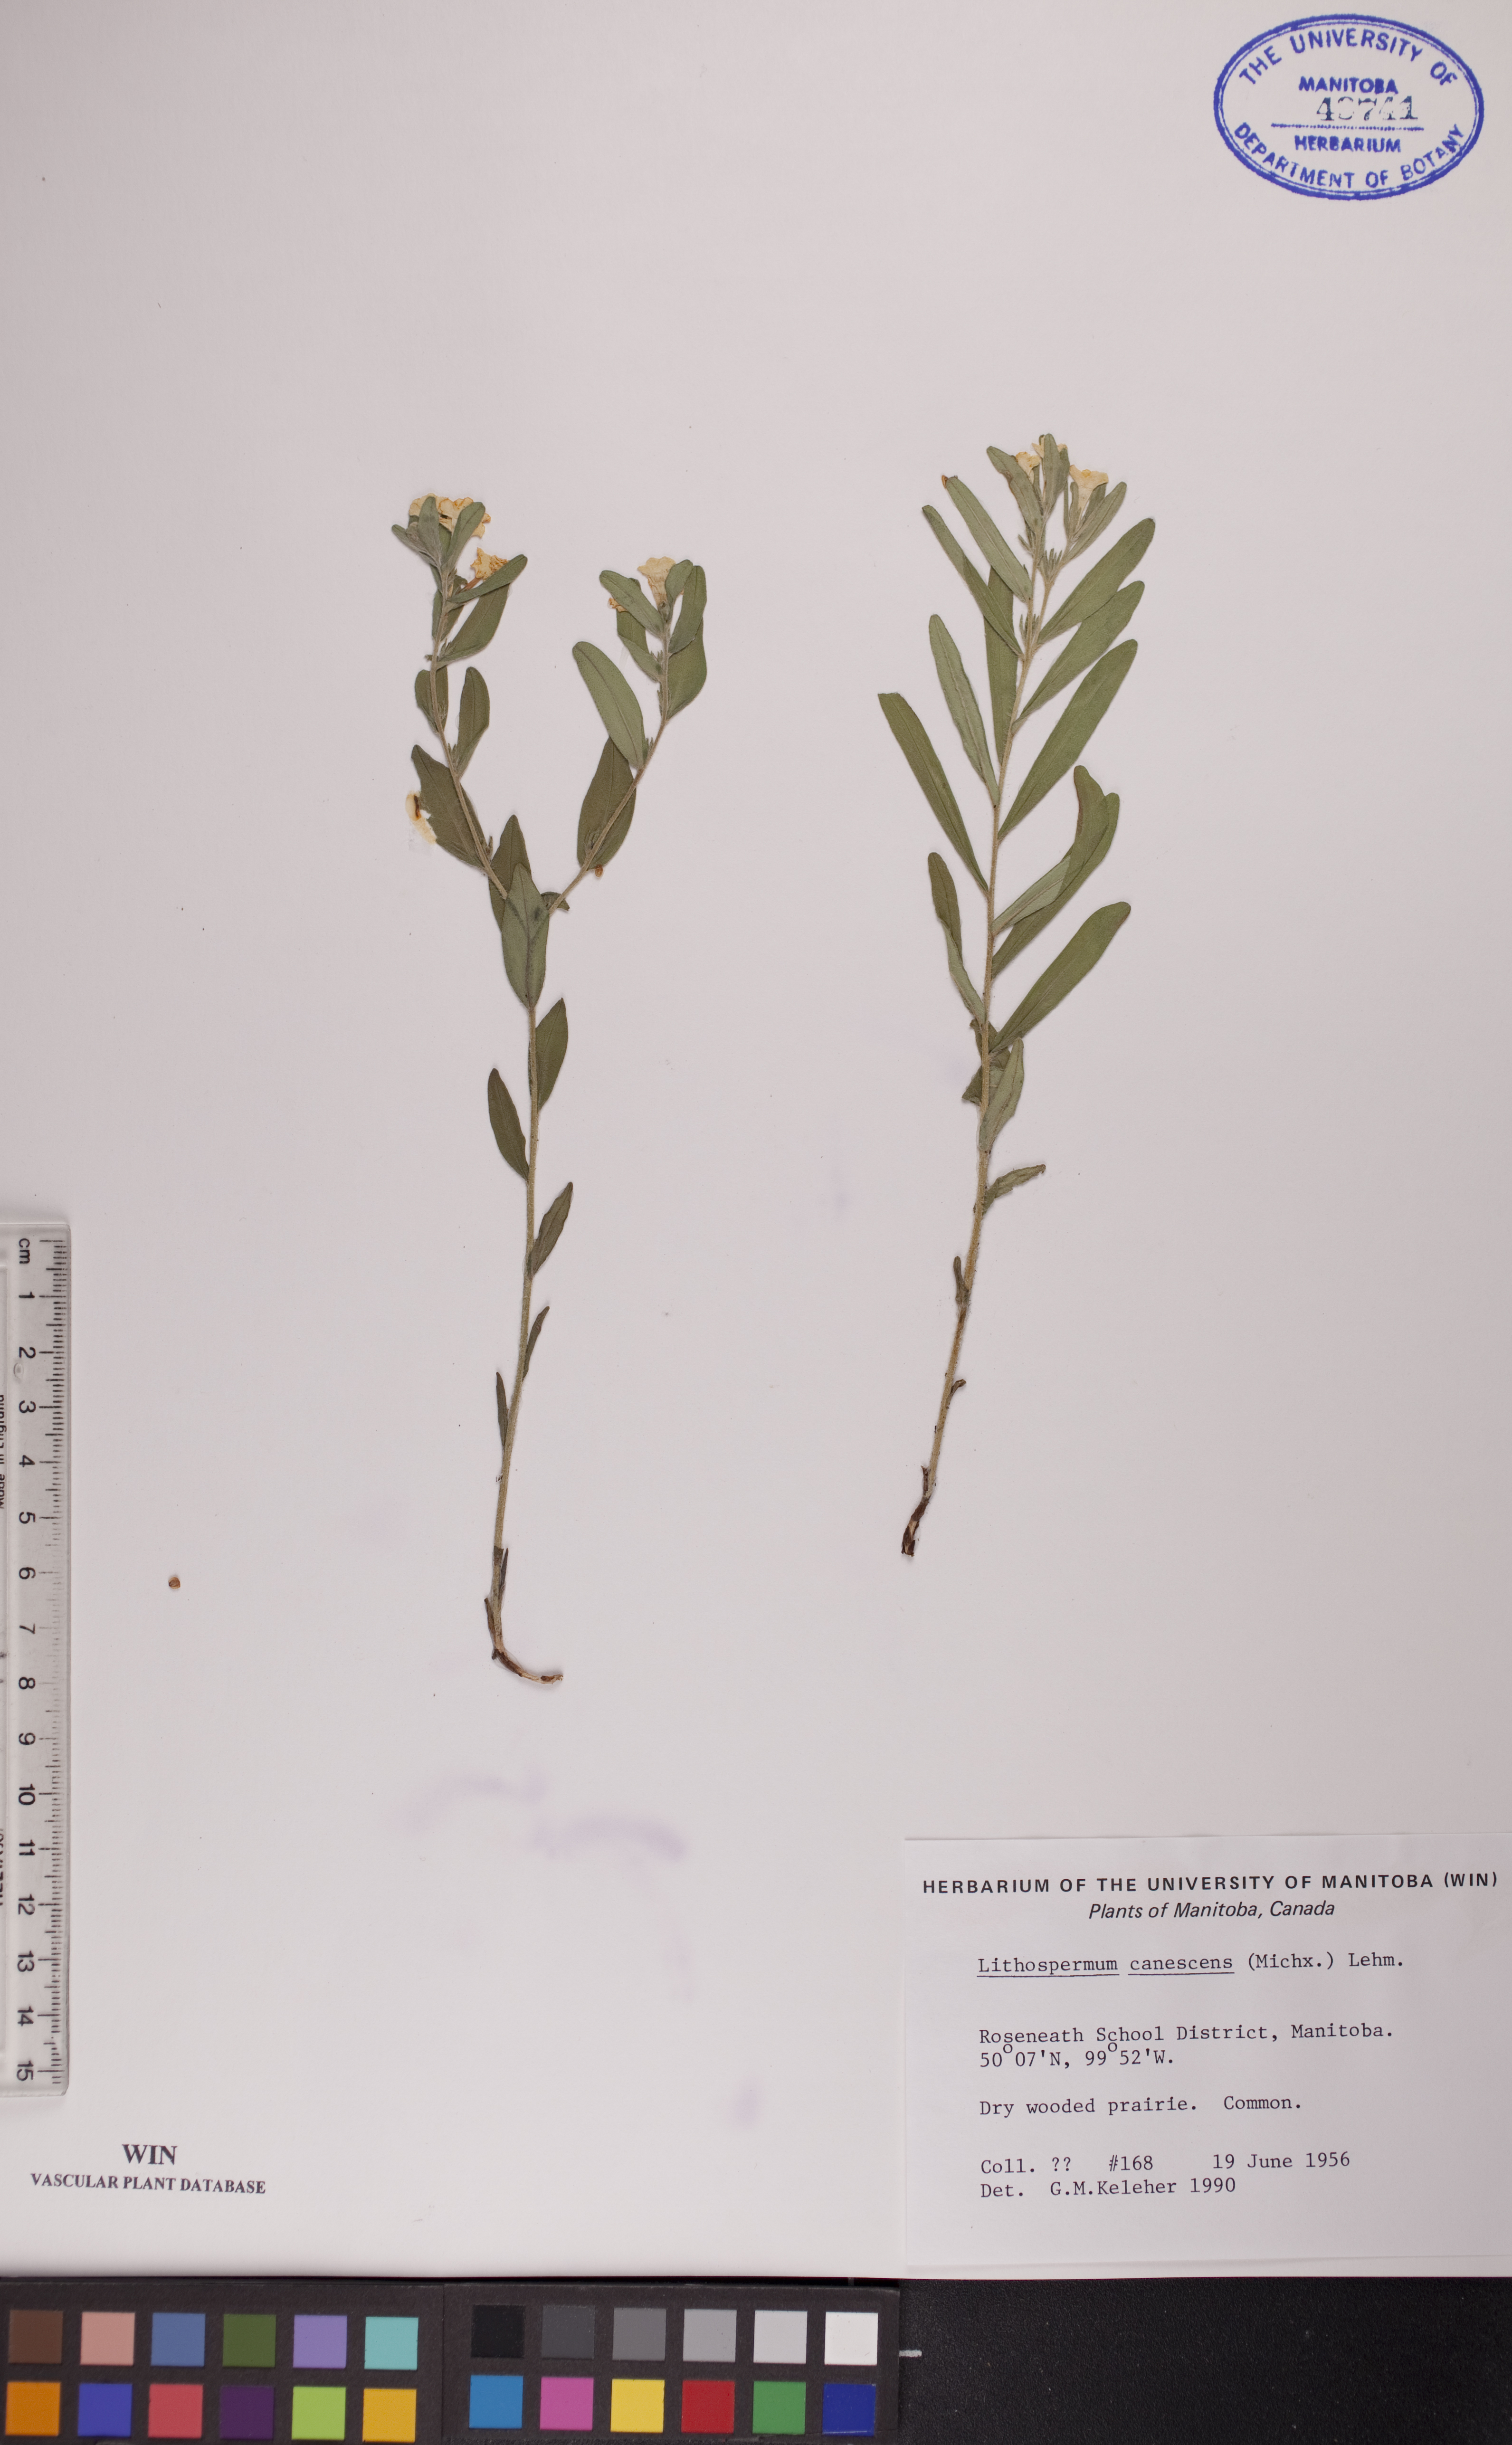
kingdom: Plantae
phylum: Tracheophyta
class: Magnoliopsida
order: Boraginales
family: Boraginaceae
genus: Lithospermum
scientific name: Lithospermum canescens
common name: Hoary puccoon
